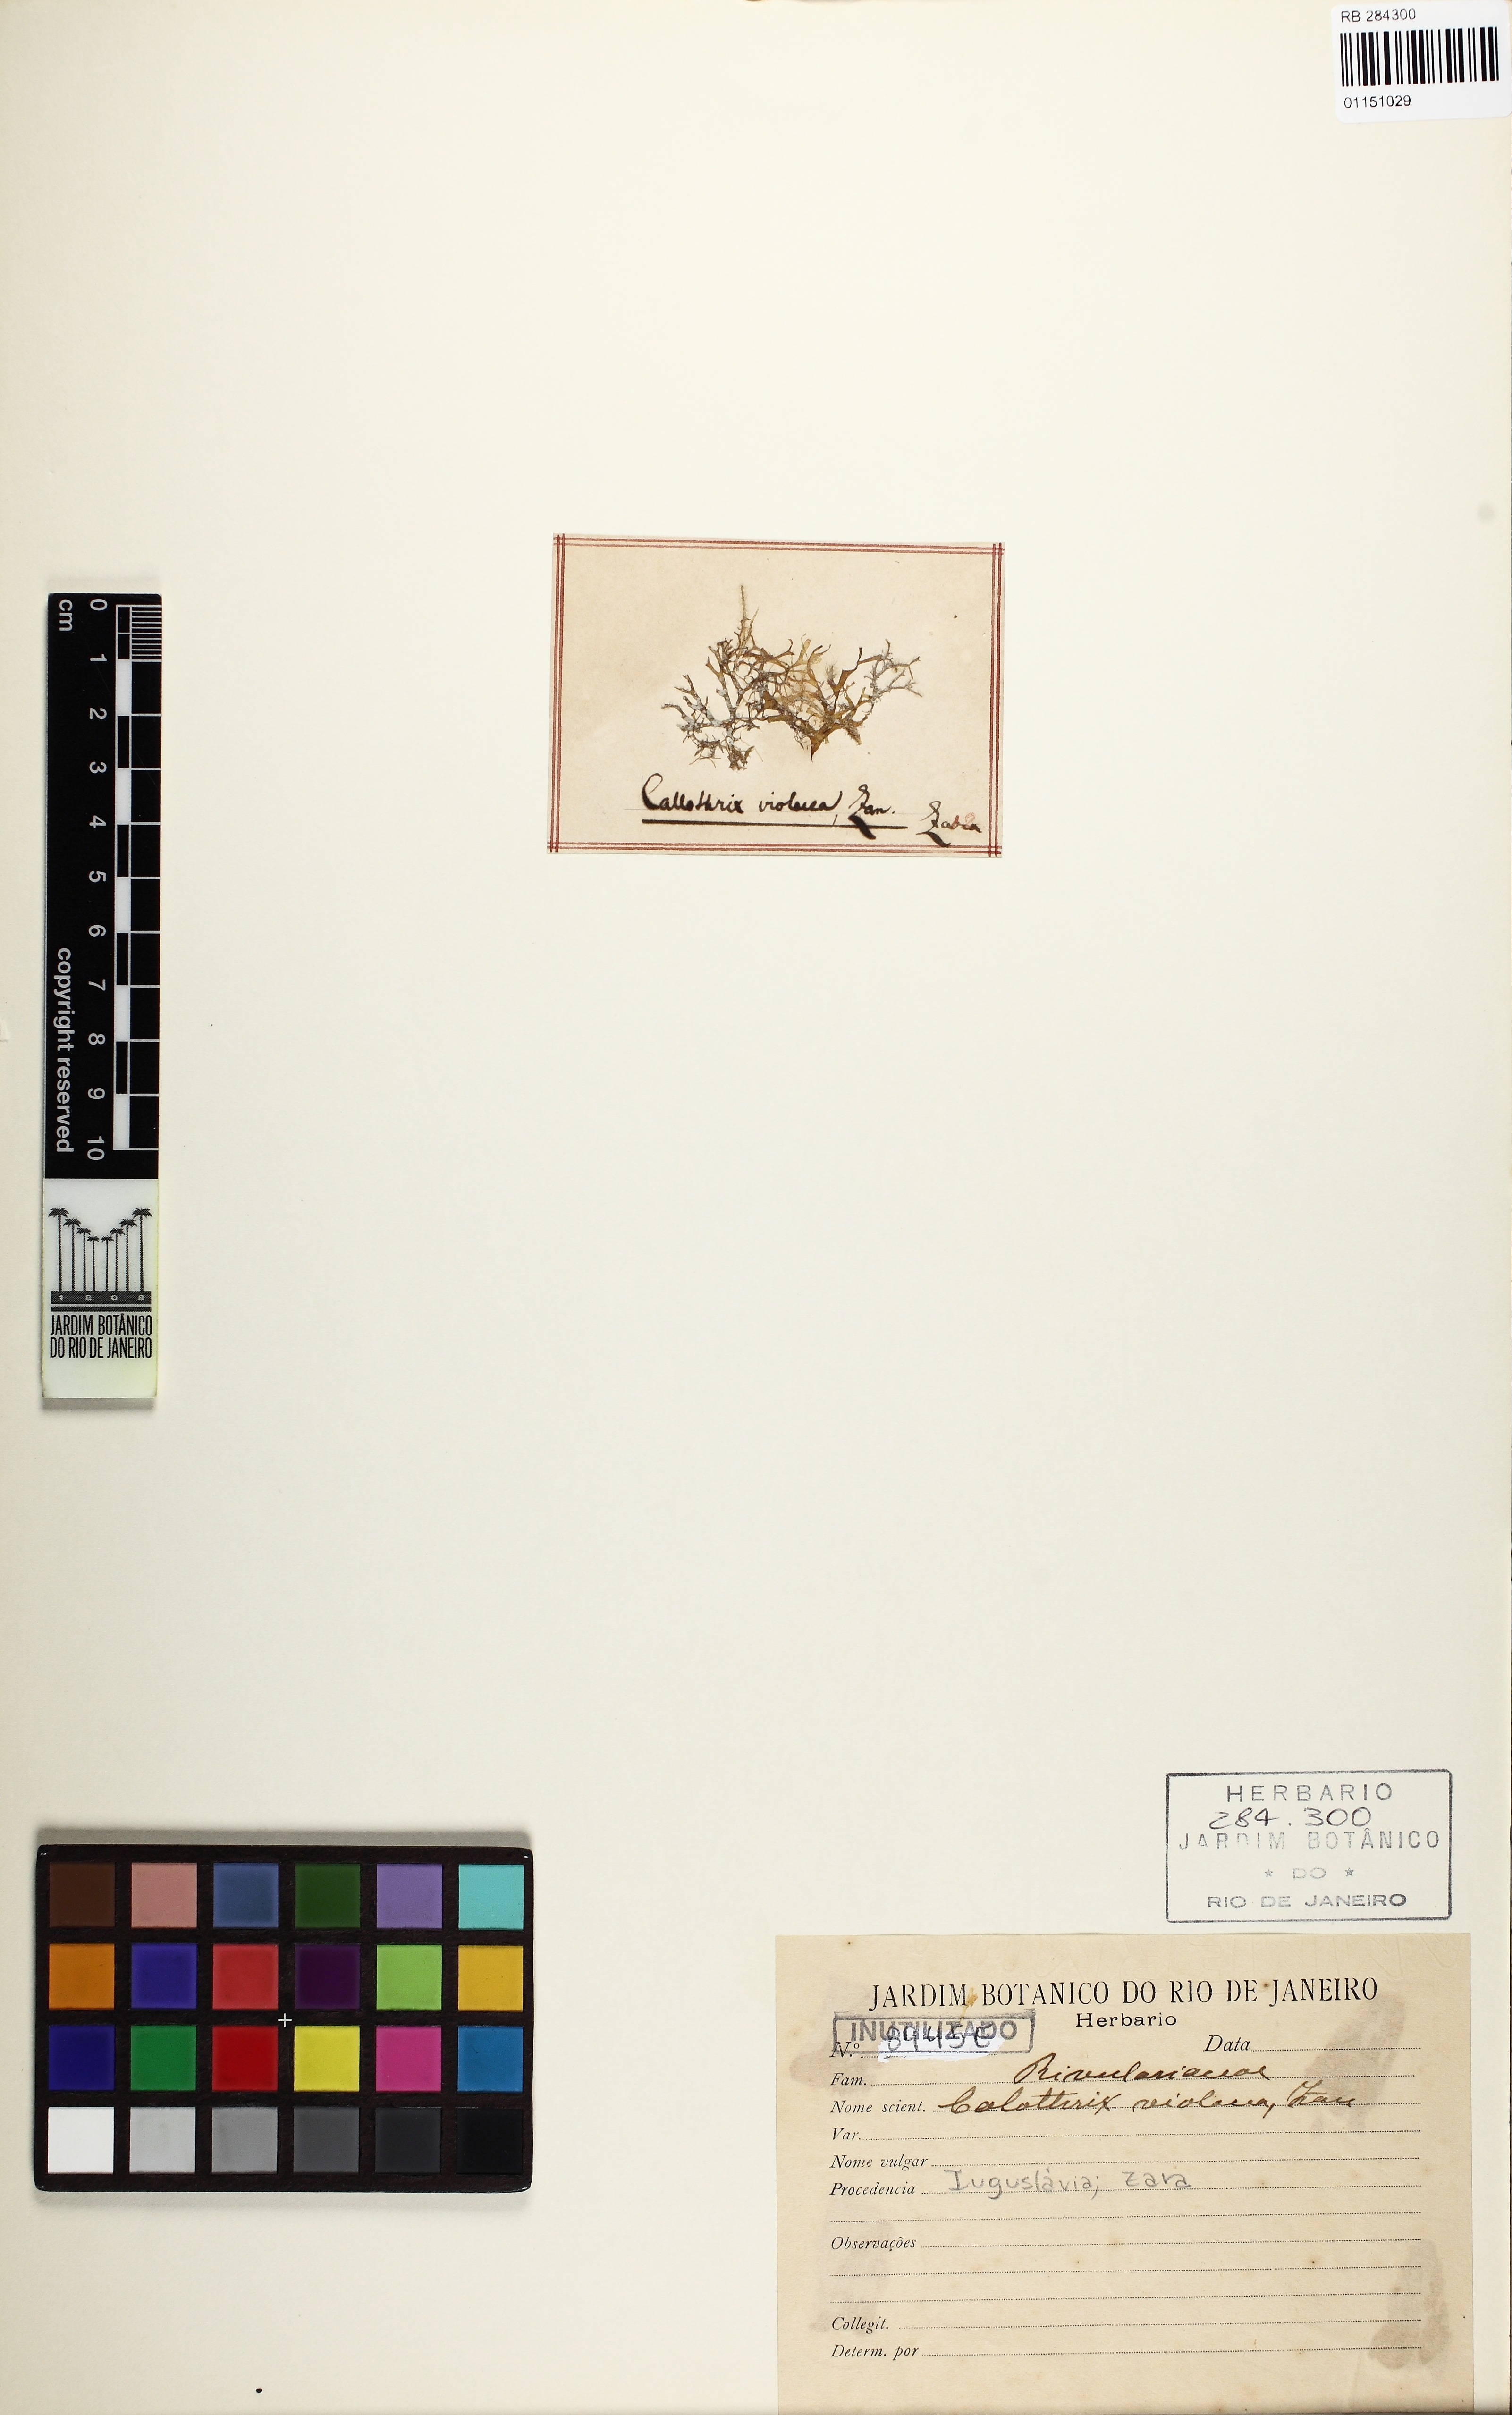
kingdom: Bacteria
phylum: Cyanobacteria
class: Cyanobacteriia
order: Cyanobacteriales
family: Rivulariaceae
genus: Calothrix
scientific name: Calothrix
